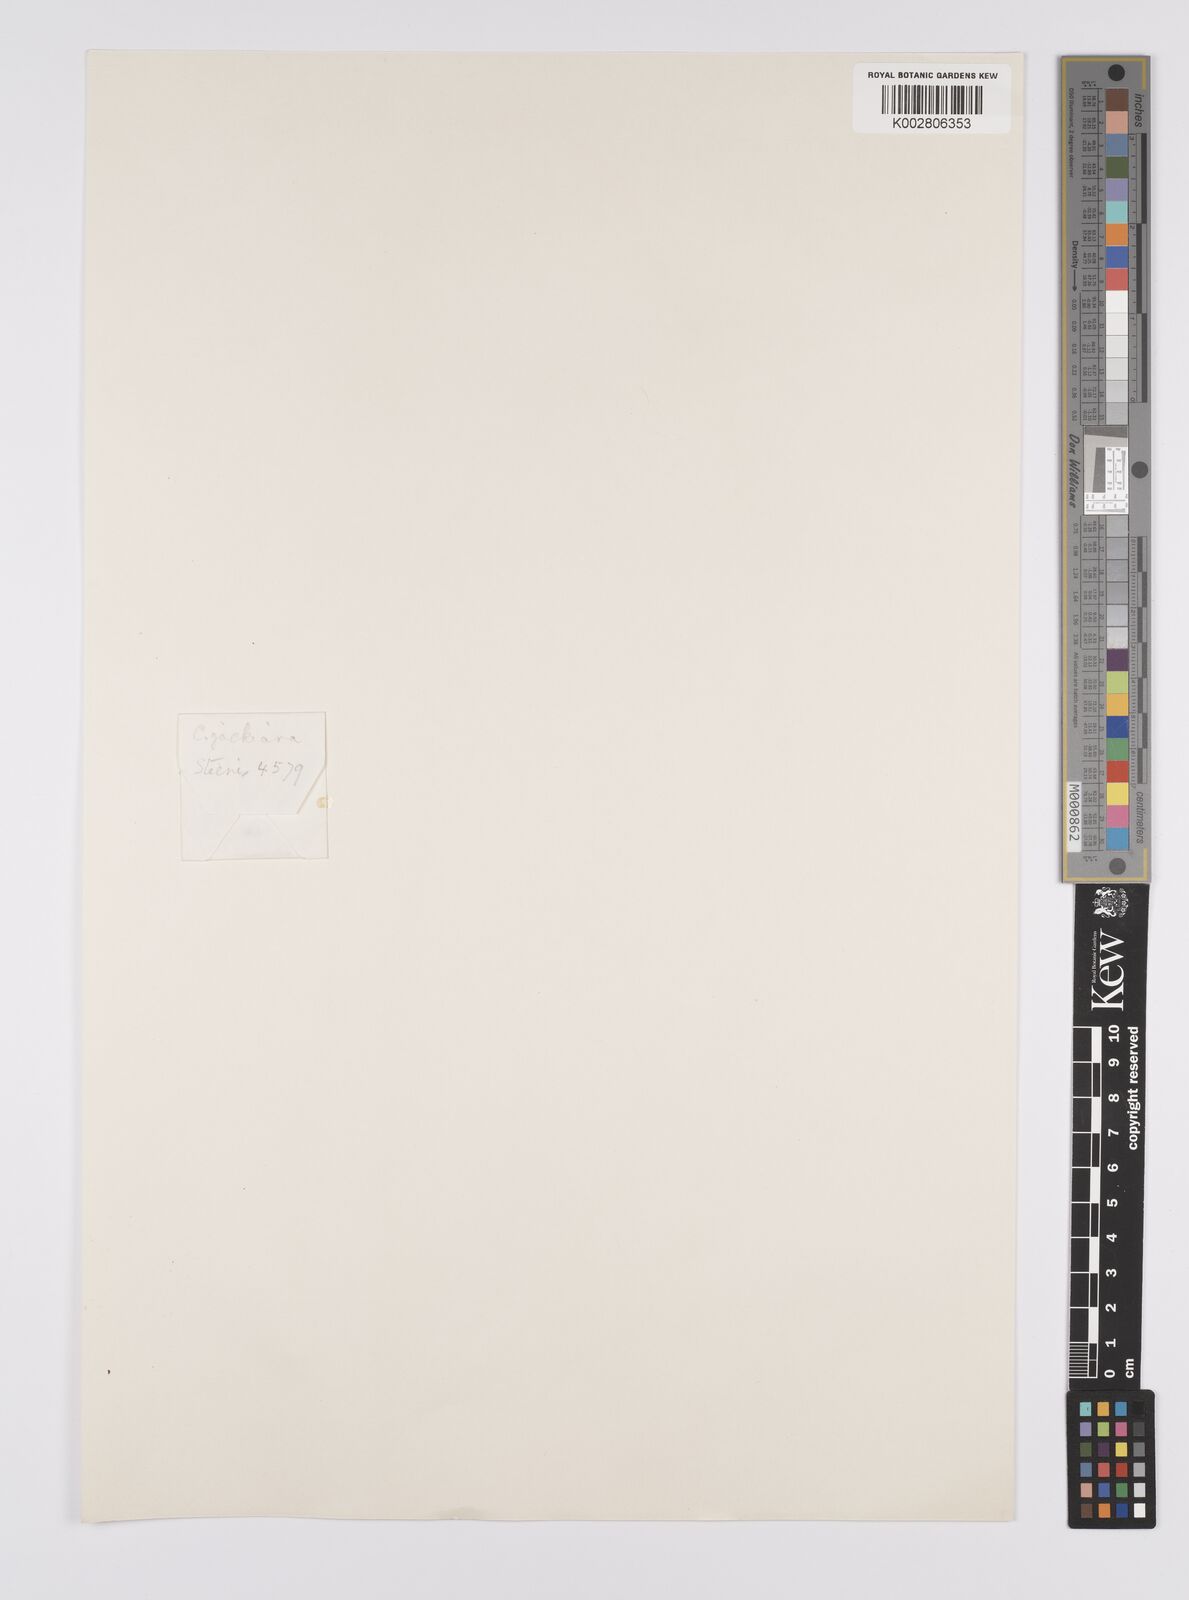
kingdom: Plantae
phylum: Tracheophyta
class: Liliopsida
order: Poales
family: Cyperaceae
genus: Carex
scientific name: Carex jackiana
